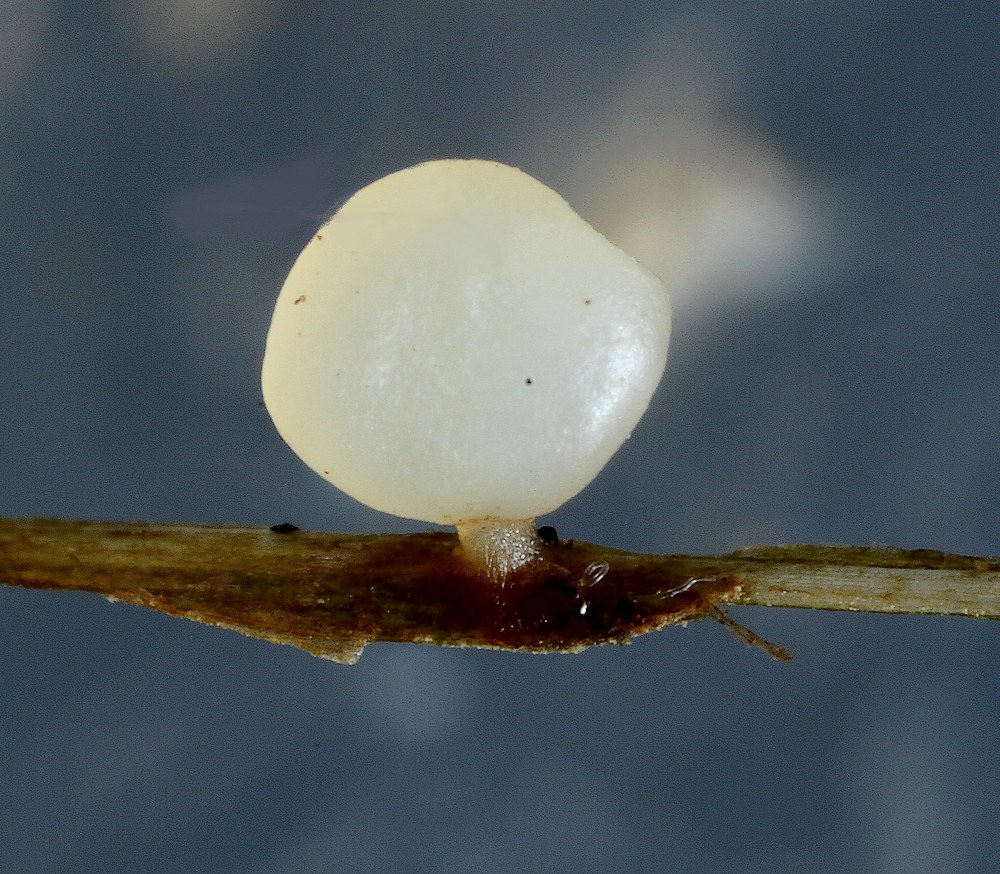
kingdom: Fungi
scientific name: Fungi
